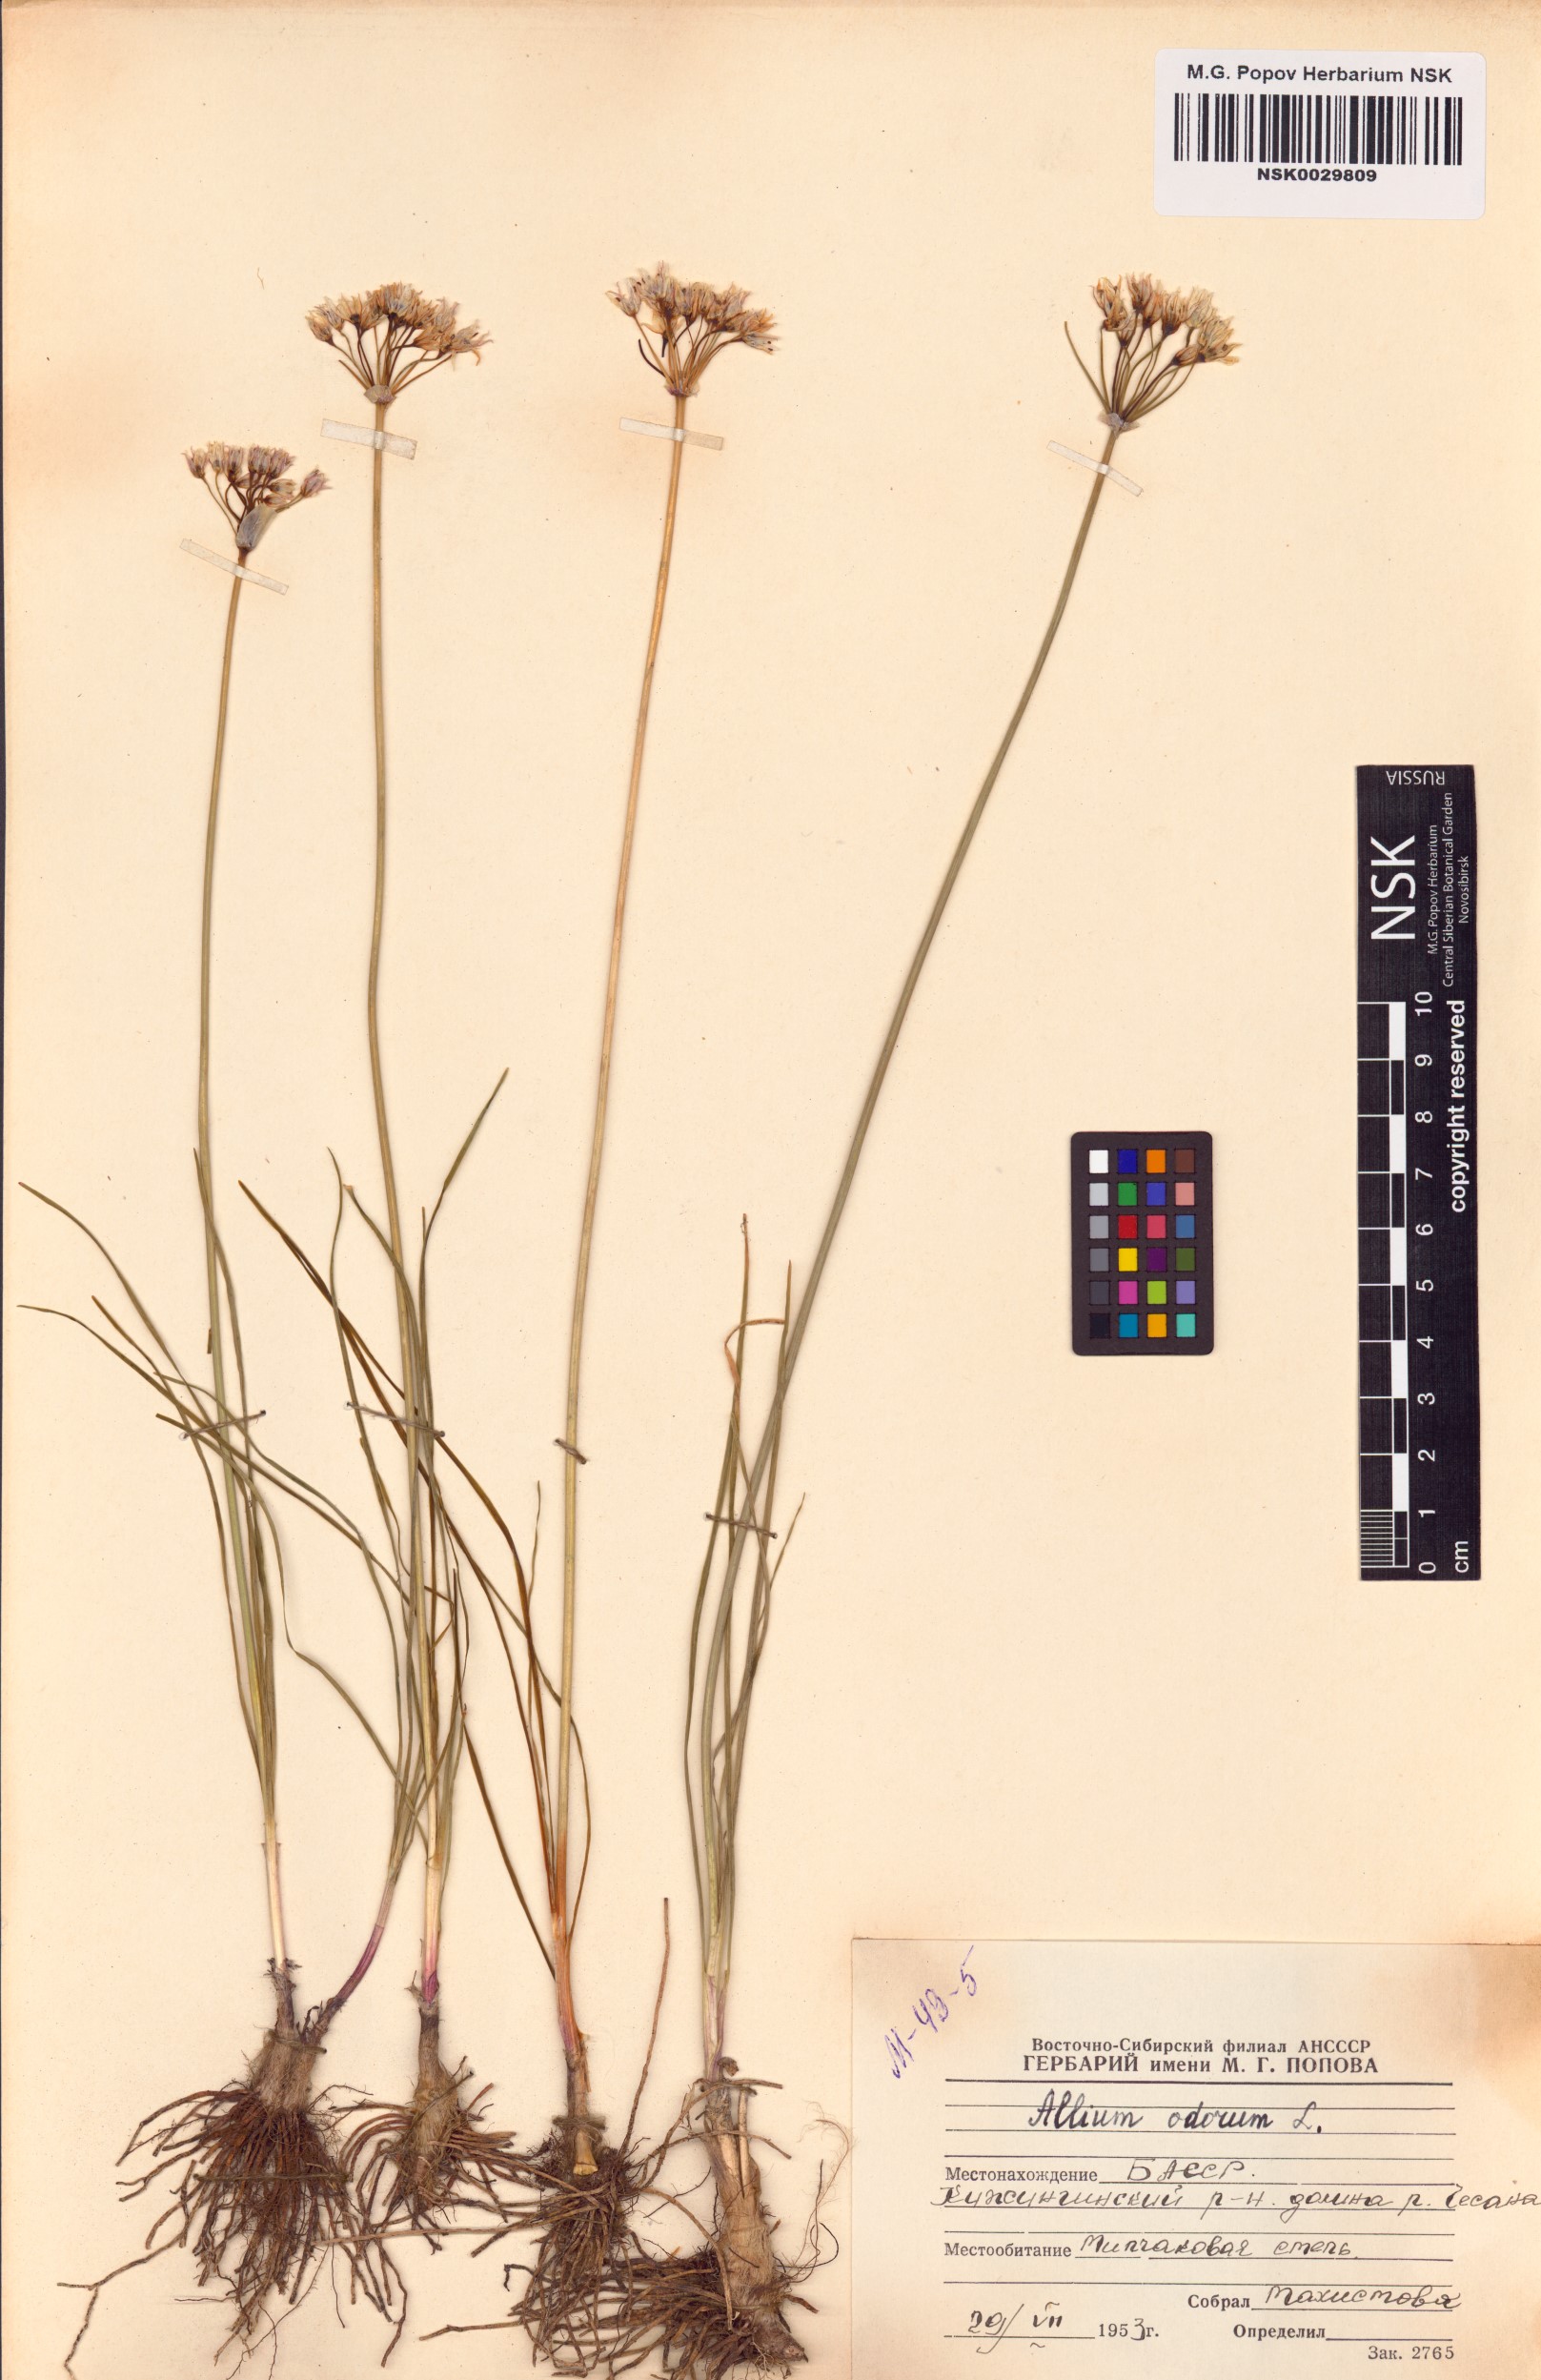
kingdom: Plantae
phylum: Tracheophyta
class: Liliopsida
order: Asparagales
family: Amaryllidaceae
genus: Allium
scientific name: Allium ramosum
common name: Fragrant garlic
